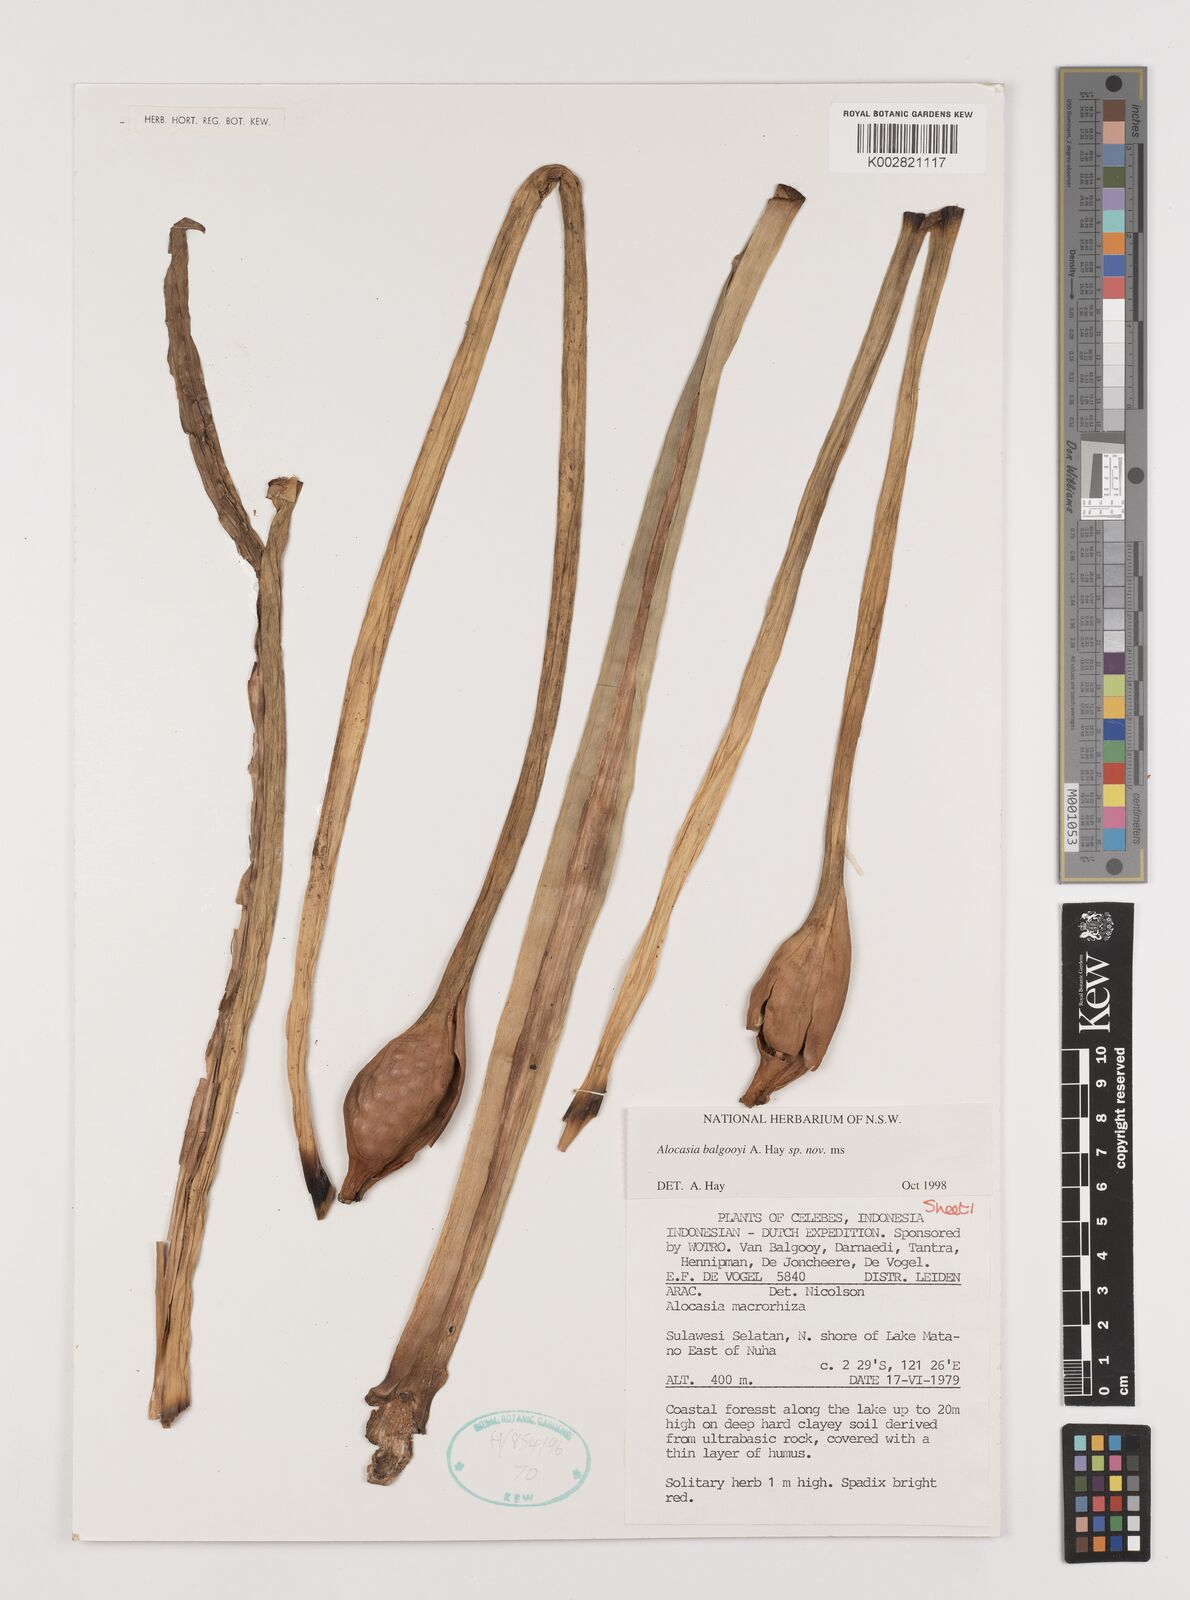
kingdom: Plantae
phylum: Tracheophyta
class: Liliopsida
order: Alismatales
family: Araceae
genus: Alocasia
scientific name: Alocasia balgooyi
